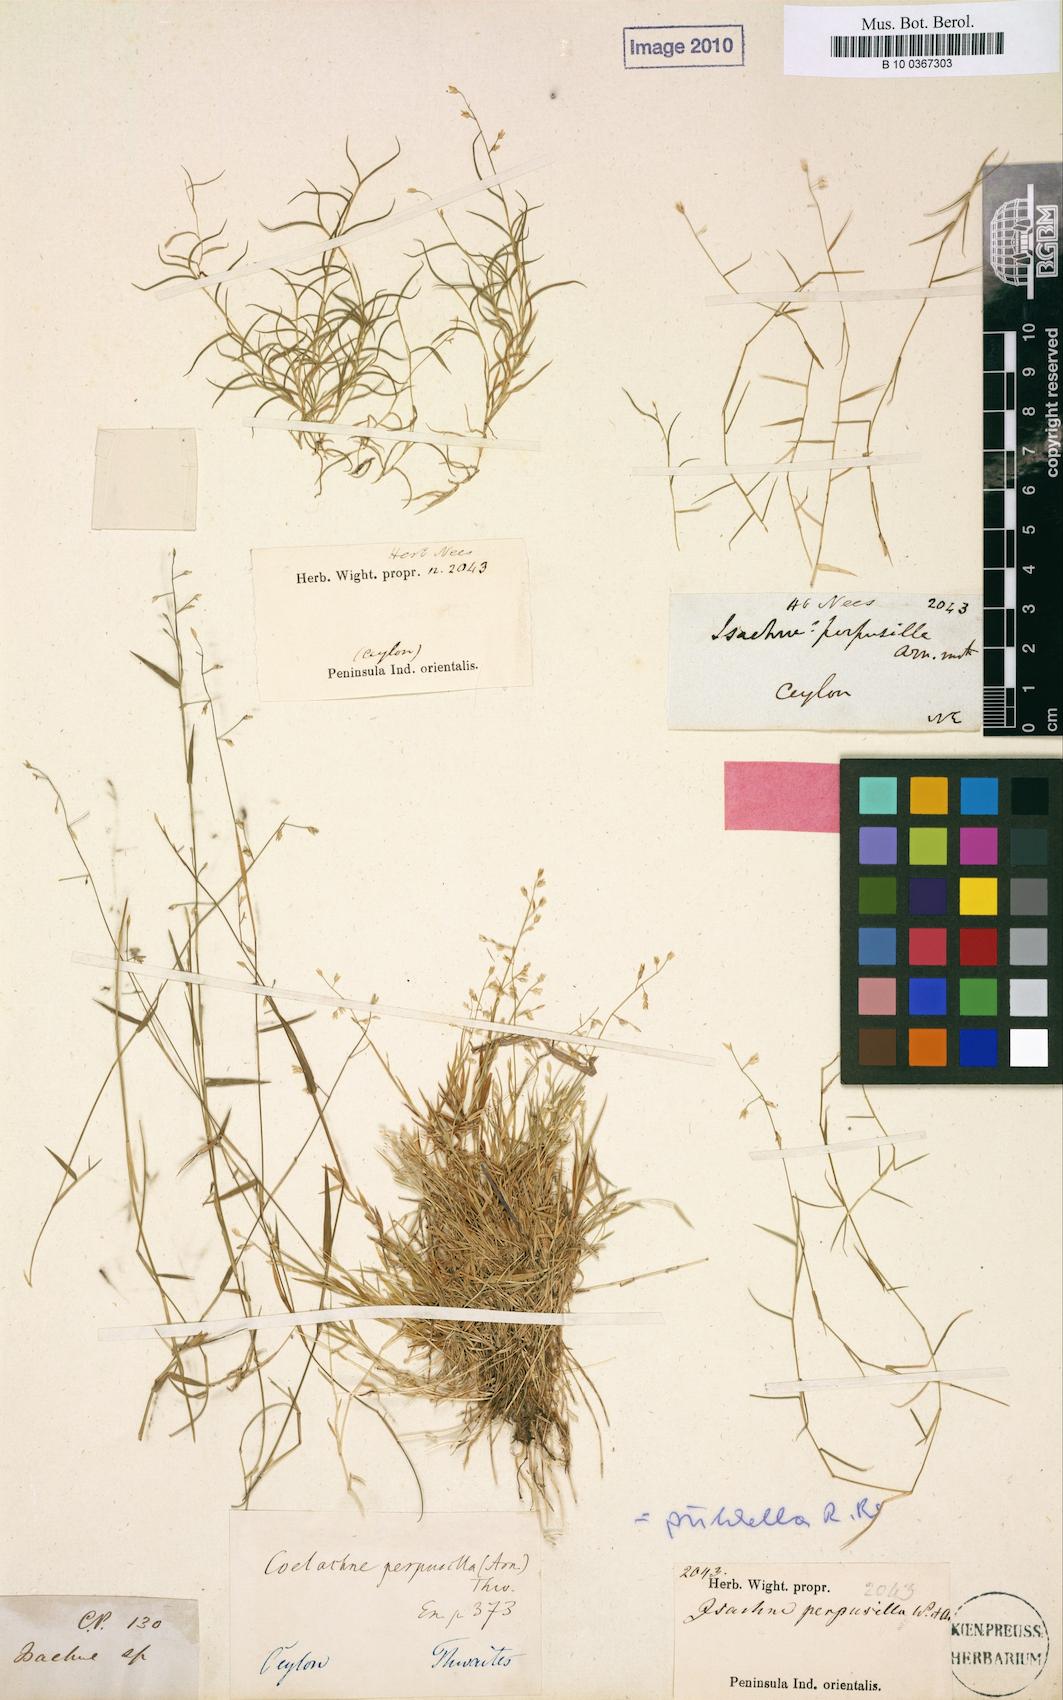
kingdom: Plantae
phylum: Tracheophyta
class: Liliopsida
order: Poales
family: Poaceae
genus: Coelachne
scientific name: Coelachne perpusilla
